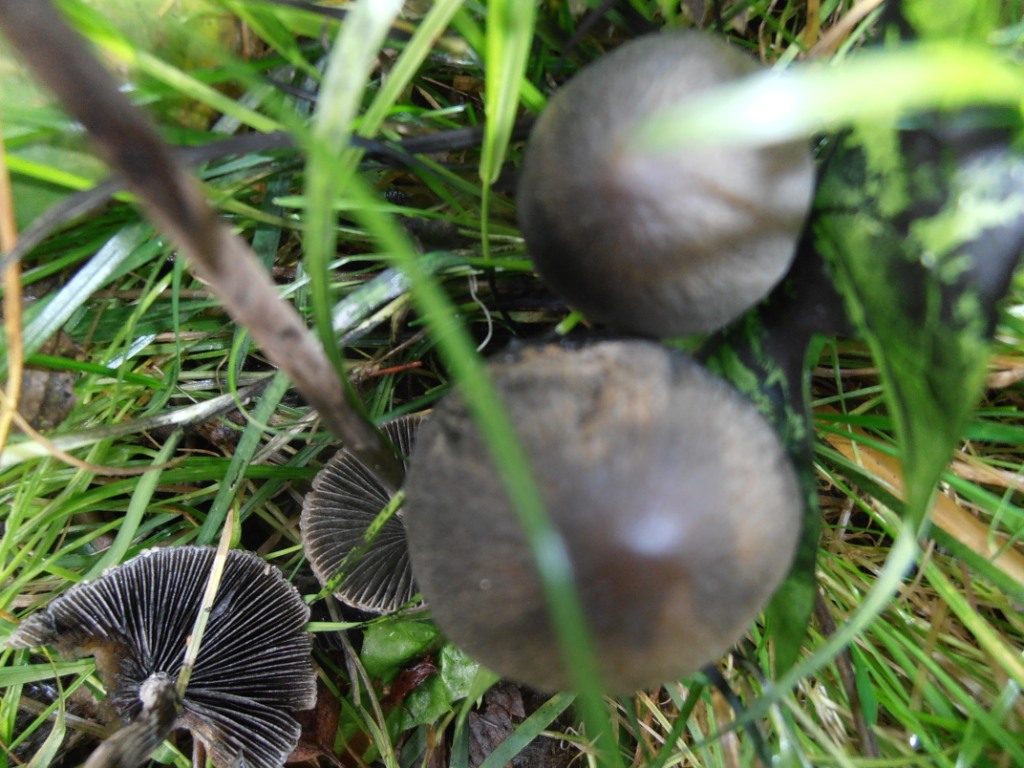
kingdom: Fungi
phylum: Basidiomycota
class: Agaricomycetes
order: Agaricales
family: Bolbitiaceae
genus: Panaeolus
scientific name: Panaeolus acuminatus
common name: høj glanshat
